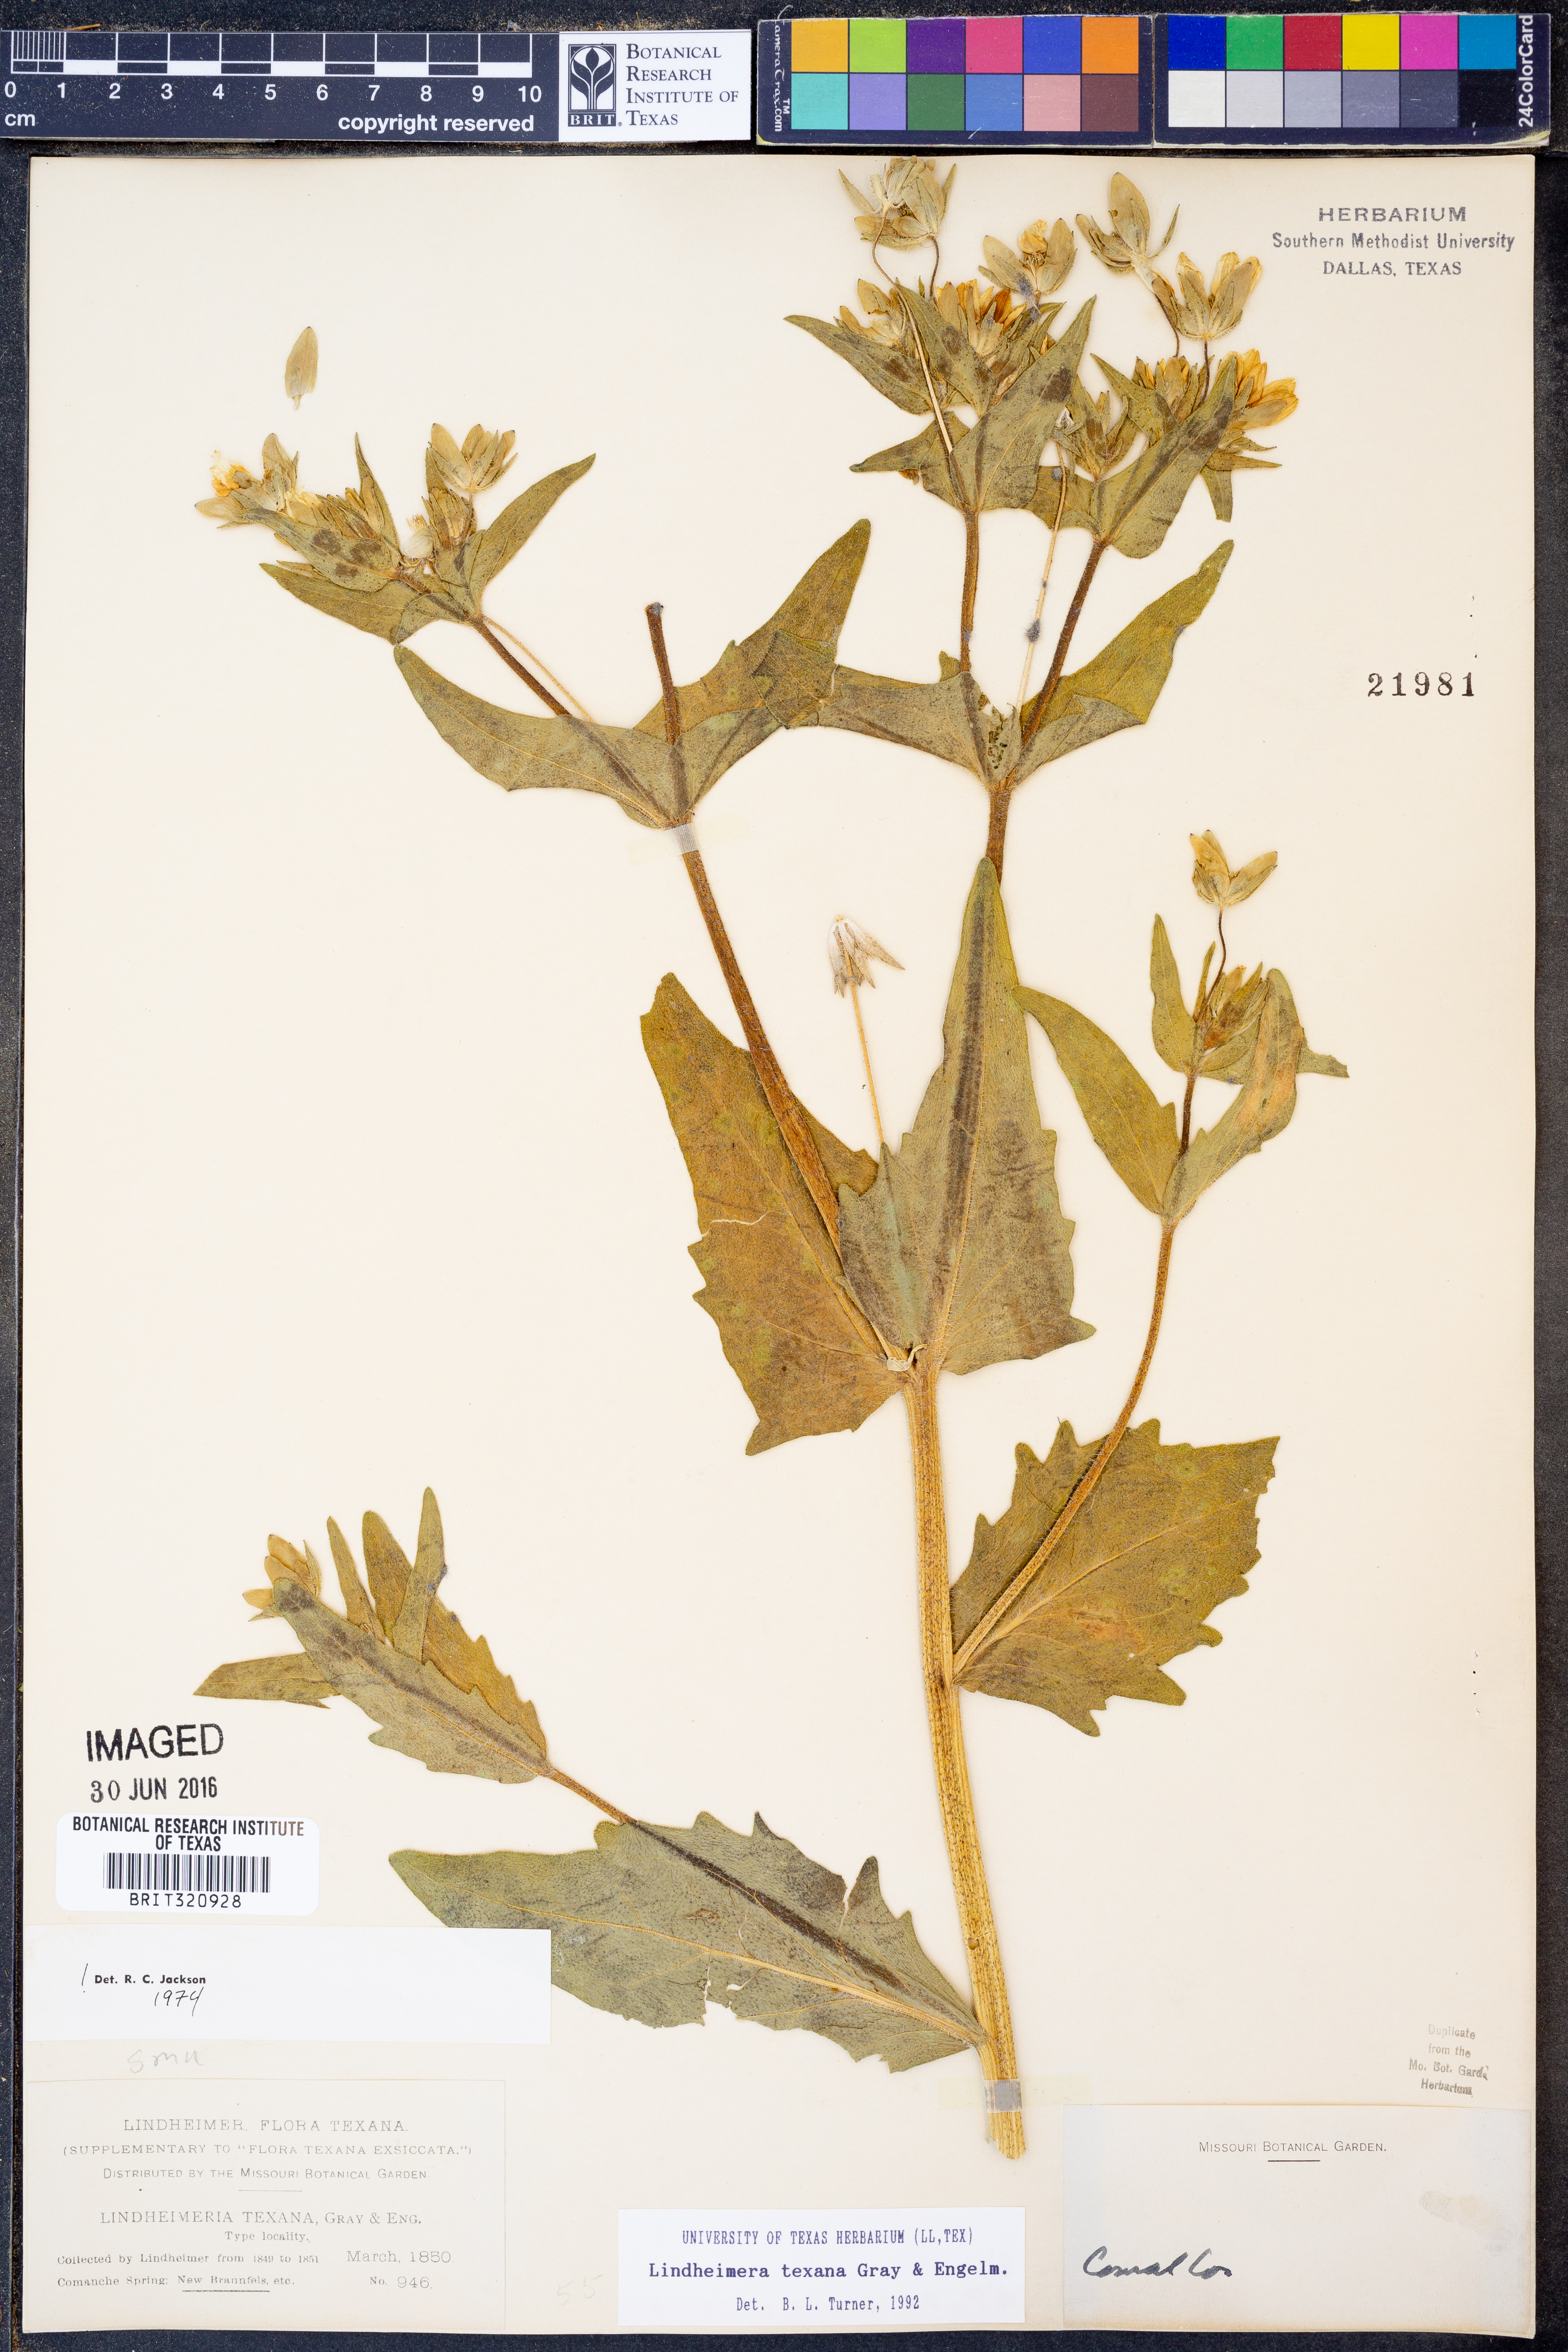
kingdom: Plantae
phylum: Tracheophyta
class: Magnoliopsida
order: Asterales
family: Asteraceae
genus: Lindheimera
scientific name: Lindheimera texana
